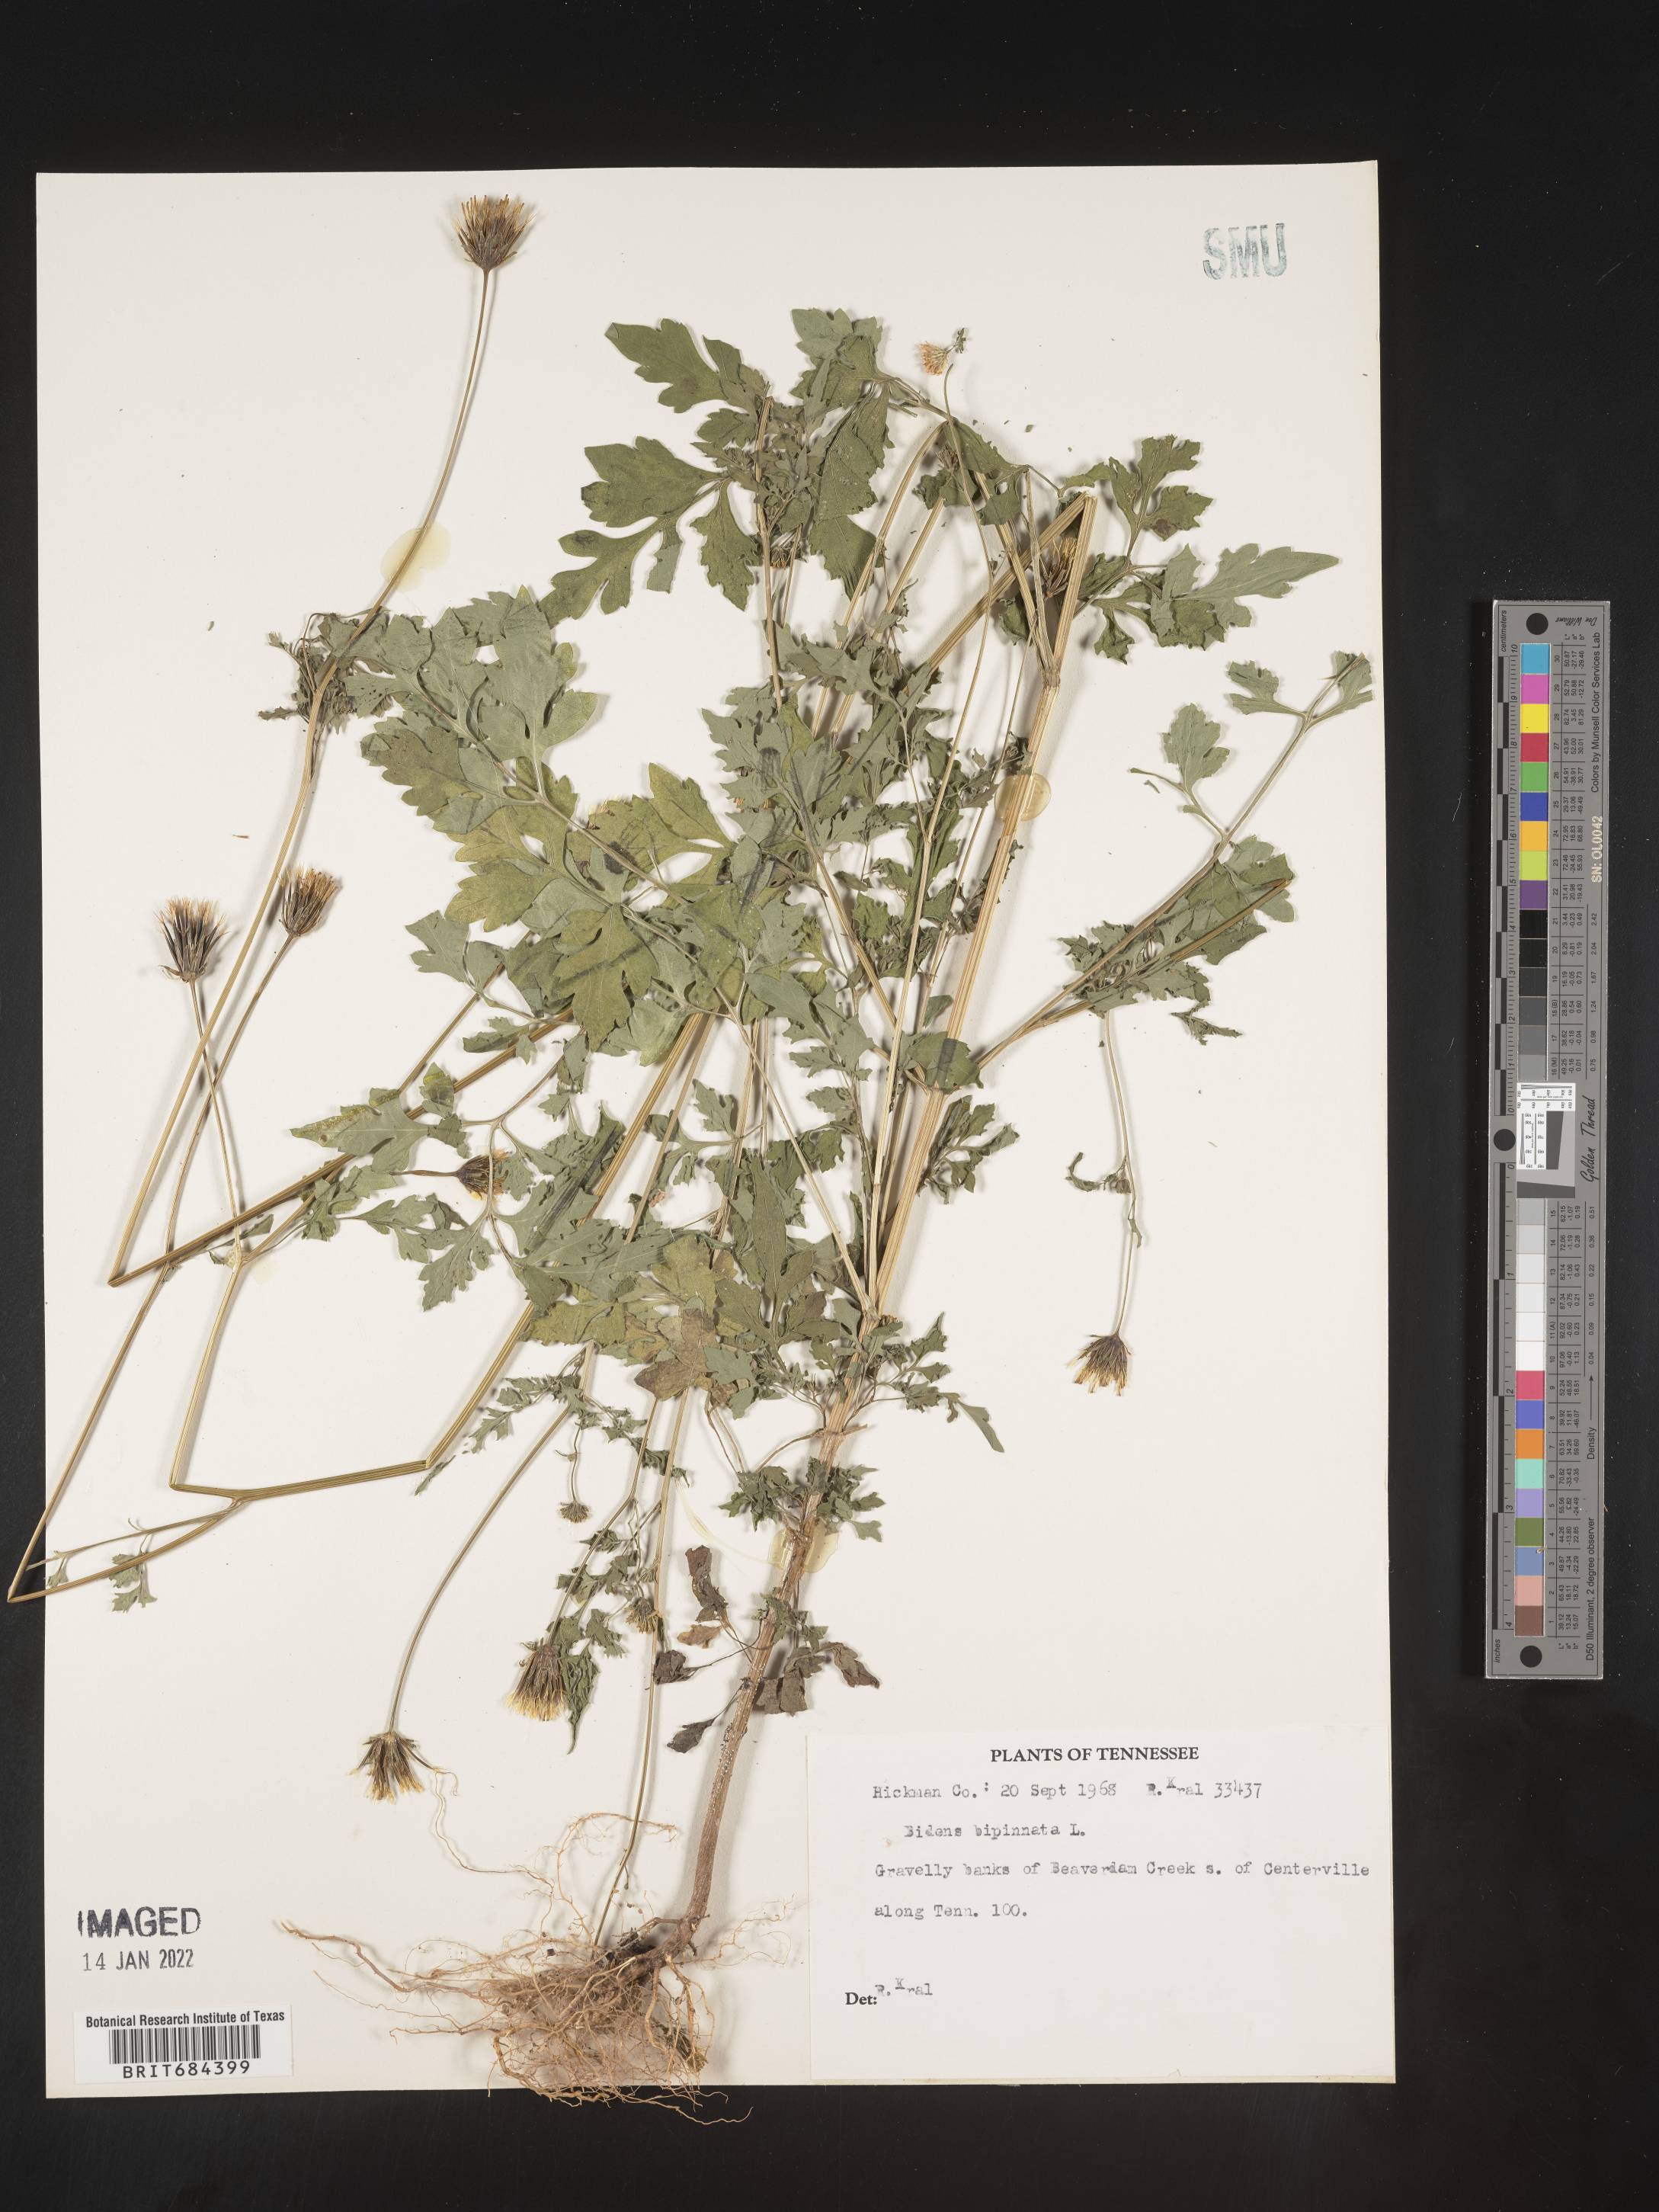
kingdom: Plantae
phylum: Tracheophyta
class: Magnoliopsida
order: Asterales
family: Asteraceae
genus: Bidens
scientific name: Bidens bipinnata
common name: Spanish-needles
